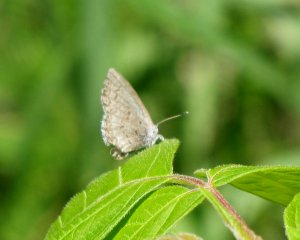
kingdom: Animalia
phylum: Arthropoda
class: Insecta
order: Lepidoptera
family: Lycaenidae
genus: Celastrina
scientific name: Celastrina serotina
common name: Cherry Gall Azure
